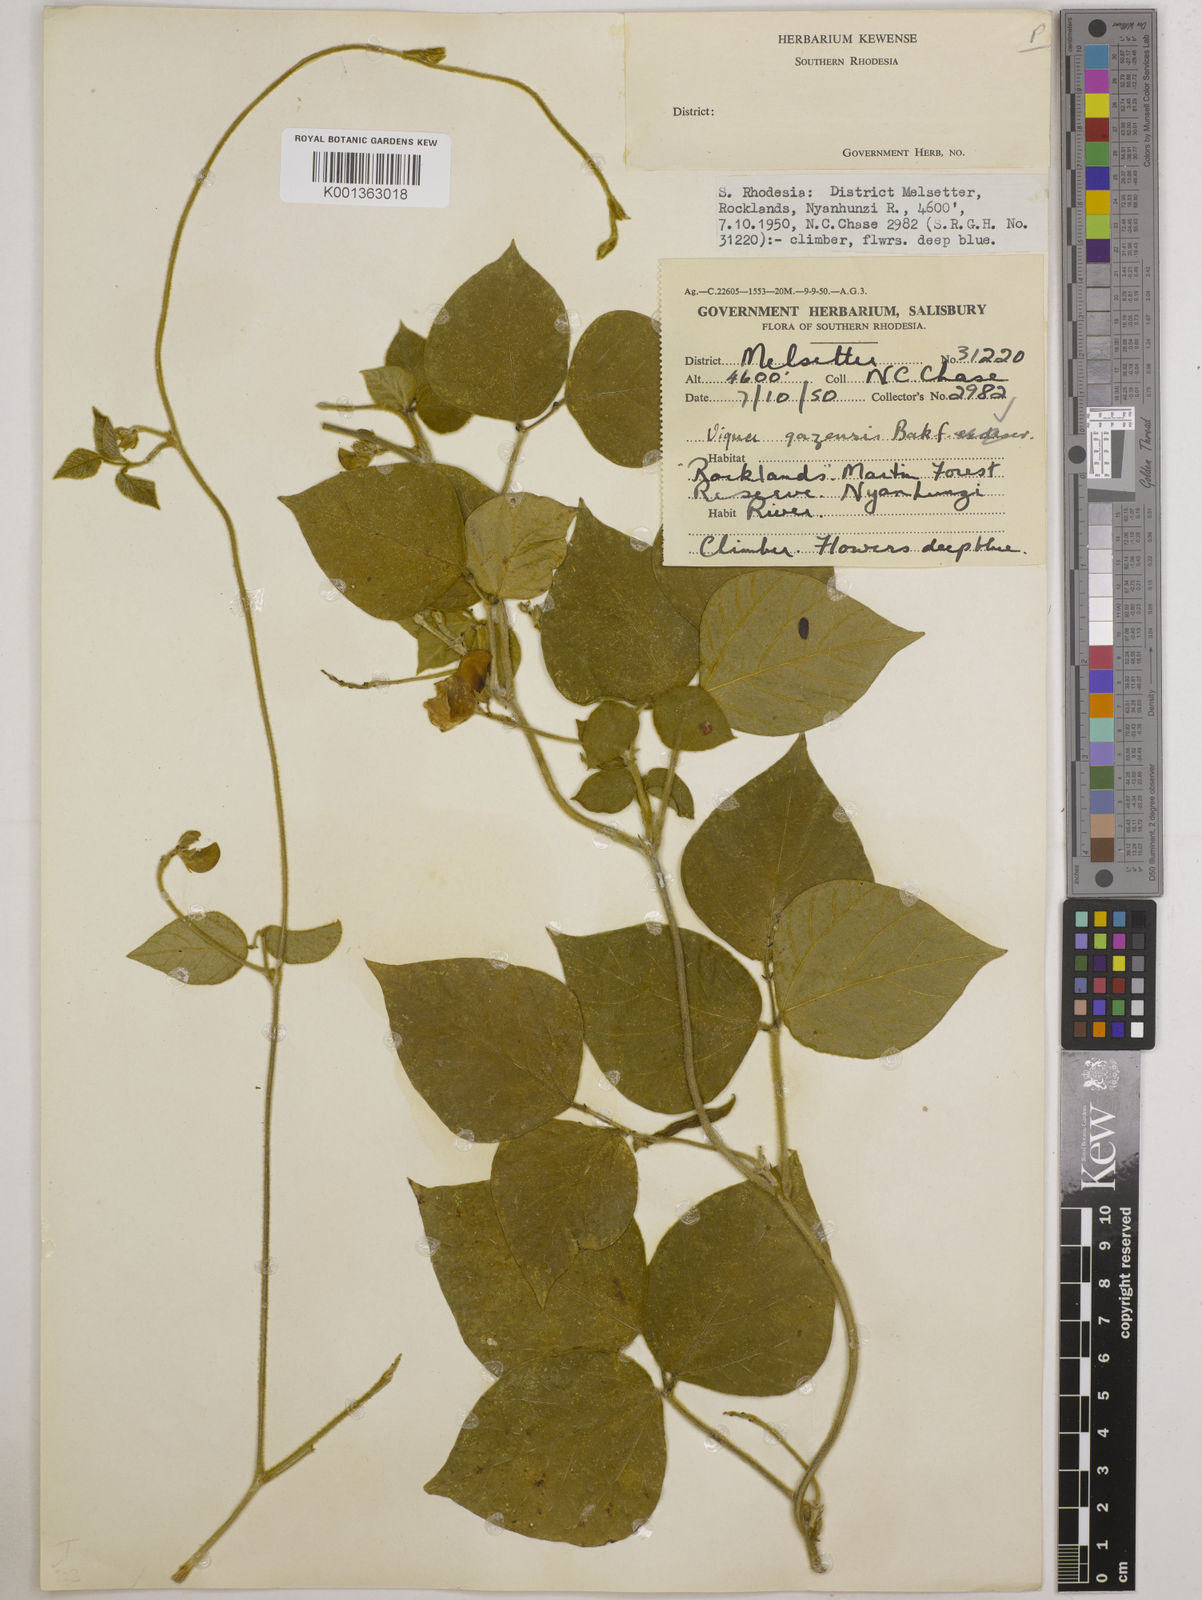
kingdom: Plantae
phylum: Tracheophyta
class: Magnoliopsida
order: Fabales
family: Fabaceae
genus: Vigna
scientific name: Vigna gazensis
